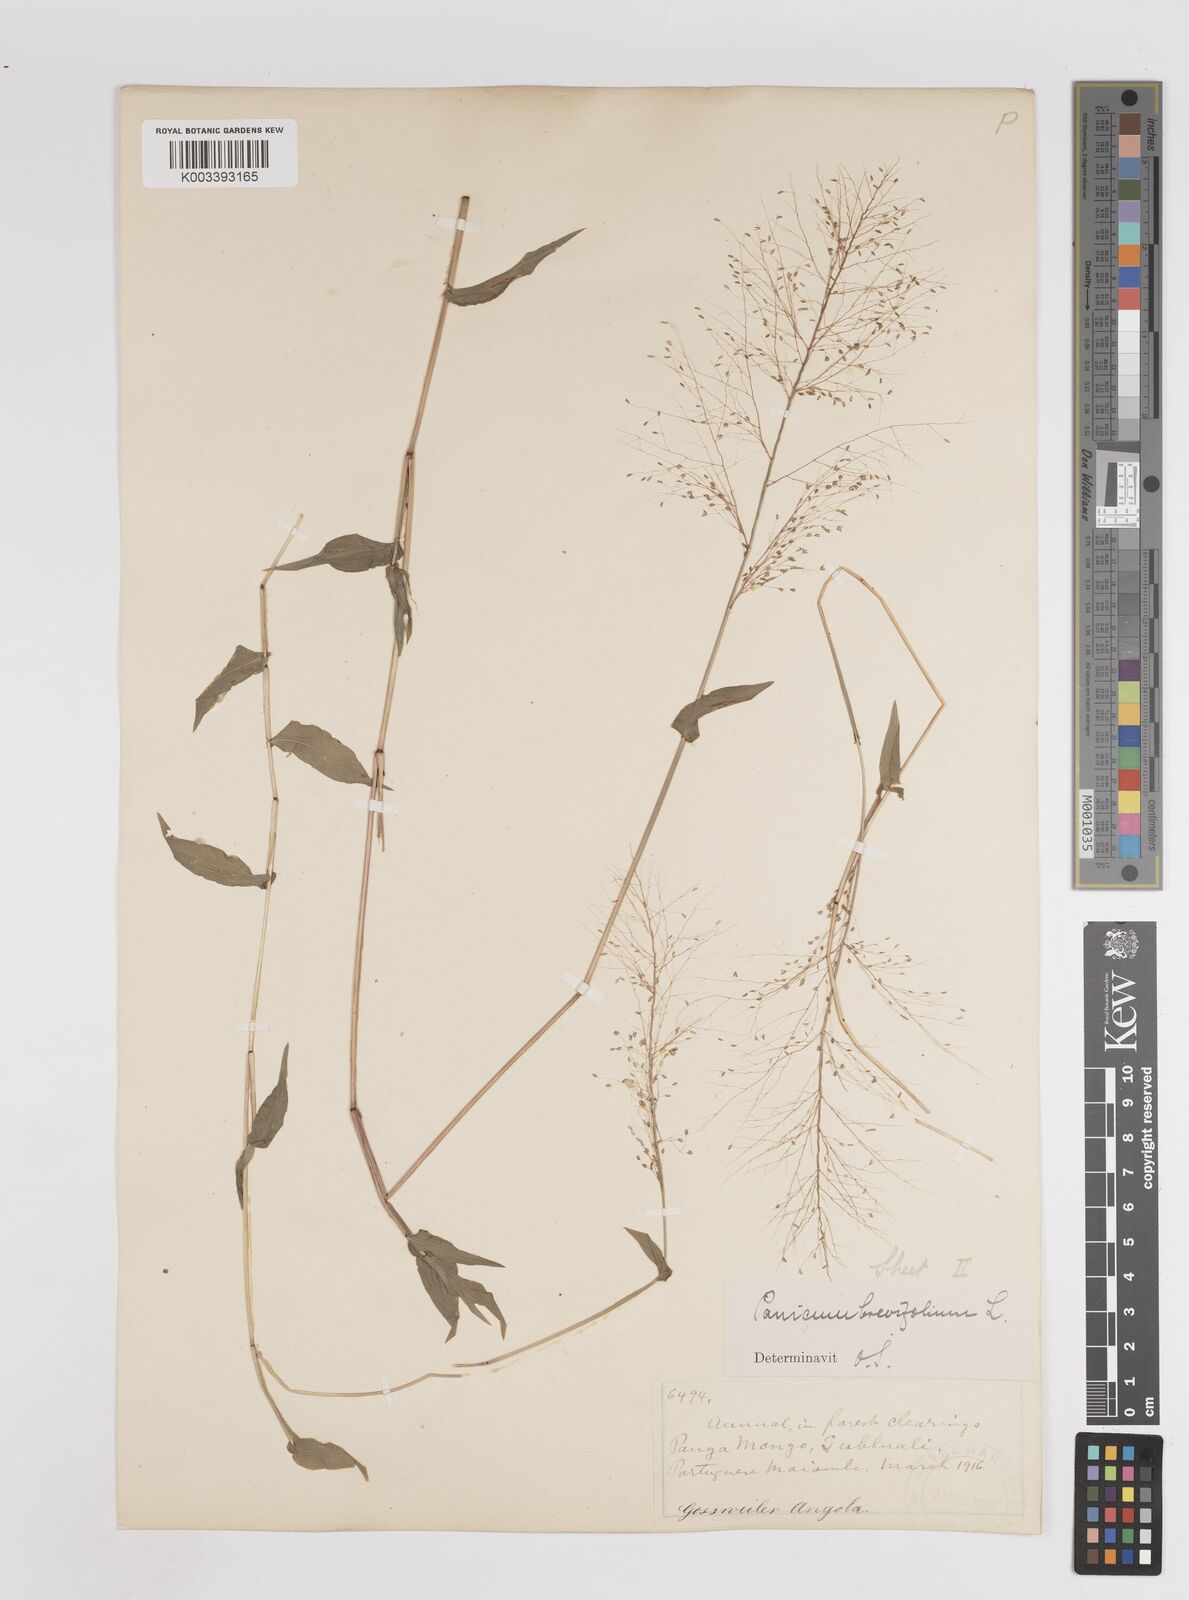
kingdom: Plantae
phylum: Tracheophyta
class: Liliopsida
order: Poales
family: Poaceae
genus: Panicum
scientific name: Panicum brevifolium
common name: Shortleaf panic grass
